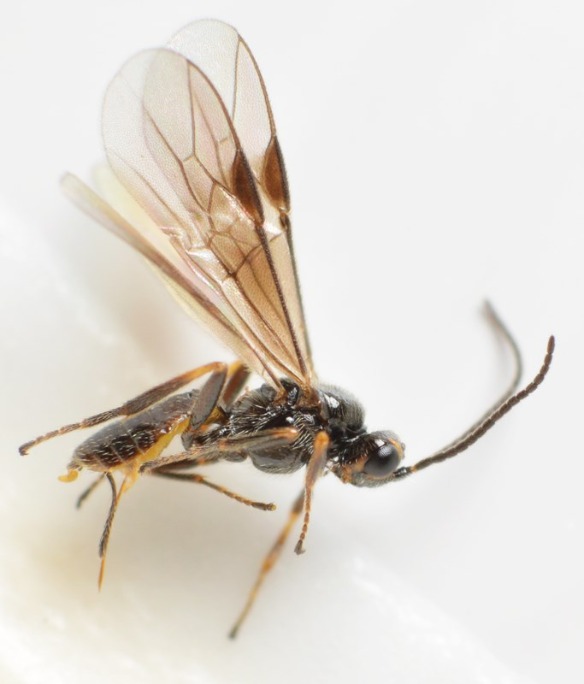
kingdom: Animalia
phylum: Arthropoda
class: Insecta
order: Hymenoptera
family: Braconidae
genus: Bracon
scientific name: Bracon variegator
